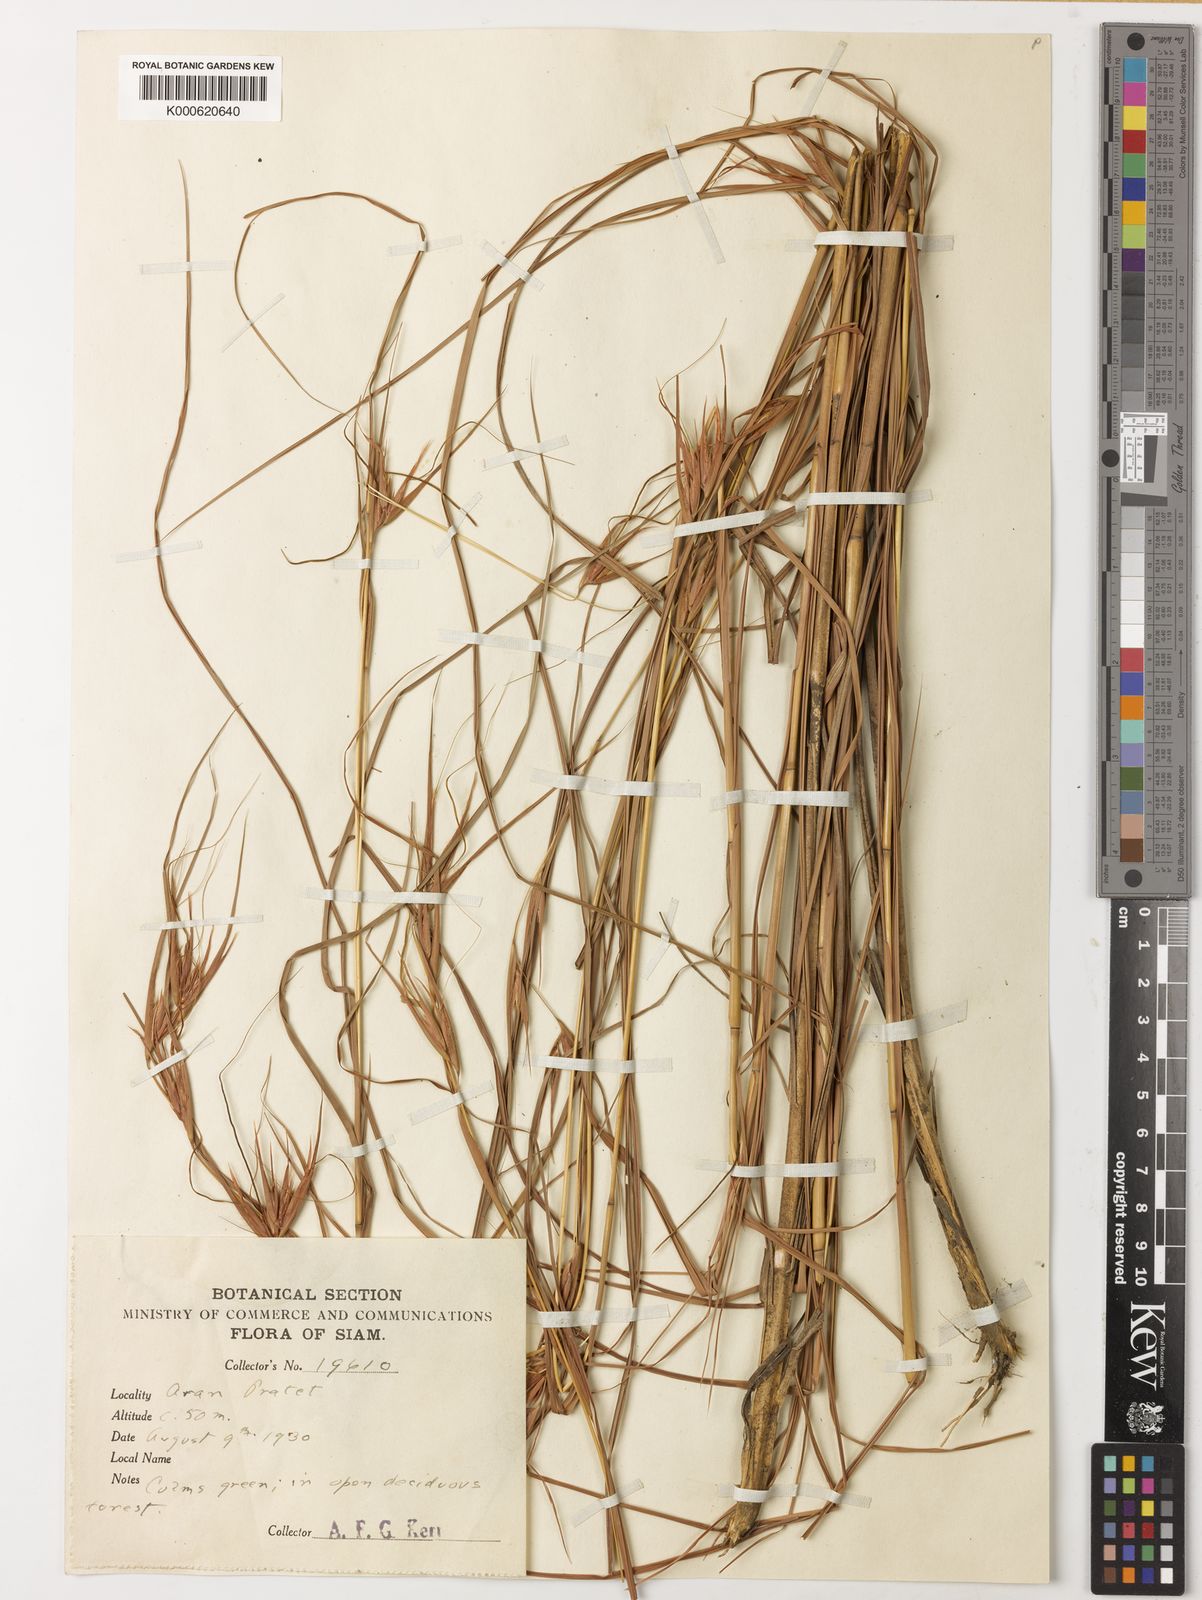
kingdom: Plantae
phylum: Tracheophyta
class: Liliopsida
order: Poales
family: Poaceae
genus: Themeda
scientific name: Themeda triandra
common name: Kangaroo grass
